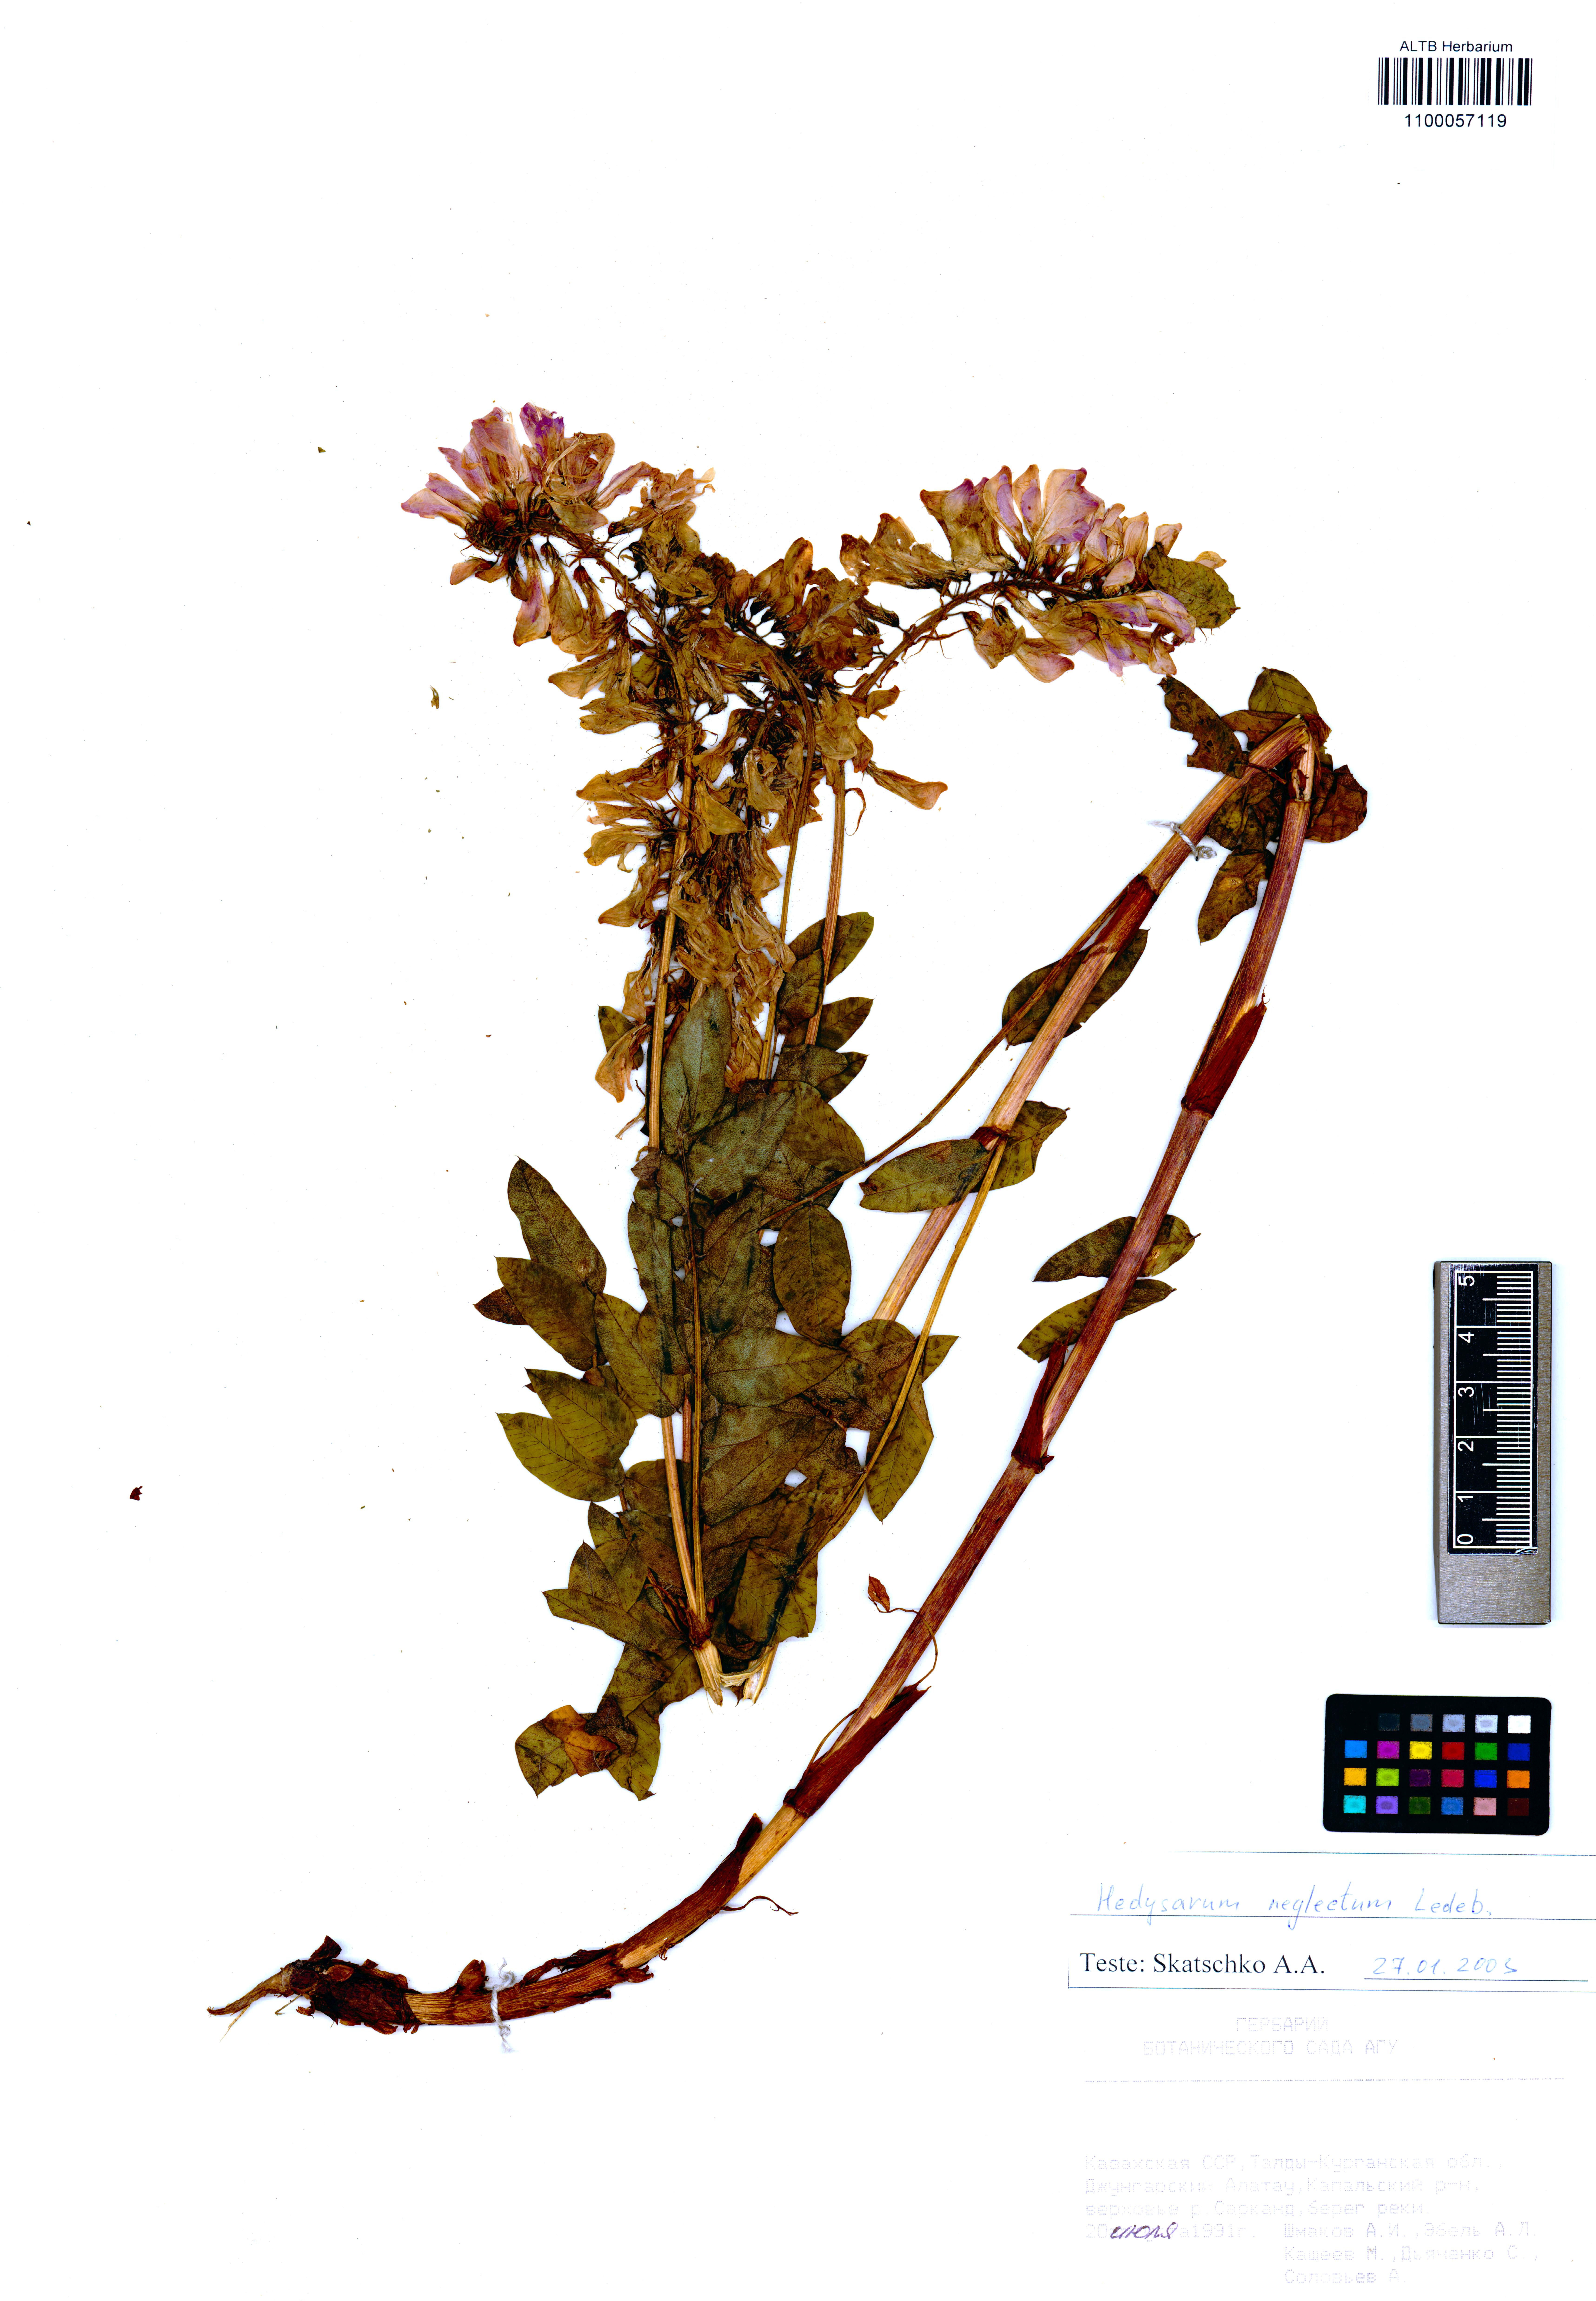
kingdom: Plantae
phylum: Tracheophyta
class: Magnoliopsida
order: Fabales
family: Fabaceae
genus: Hedysarum
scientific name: Hedysarum neglectum
